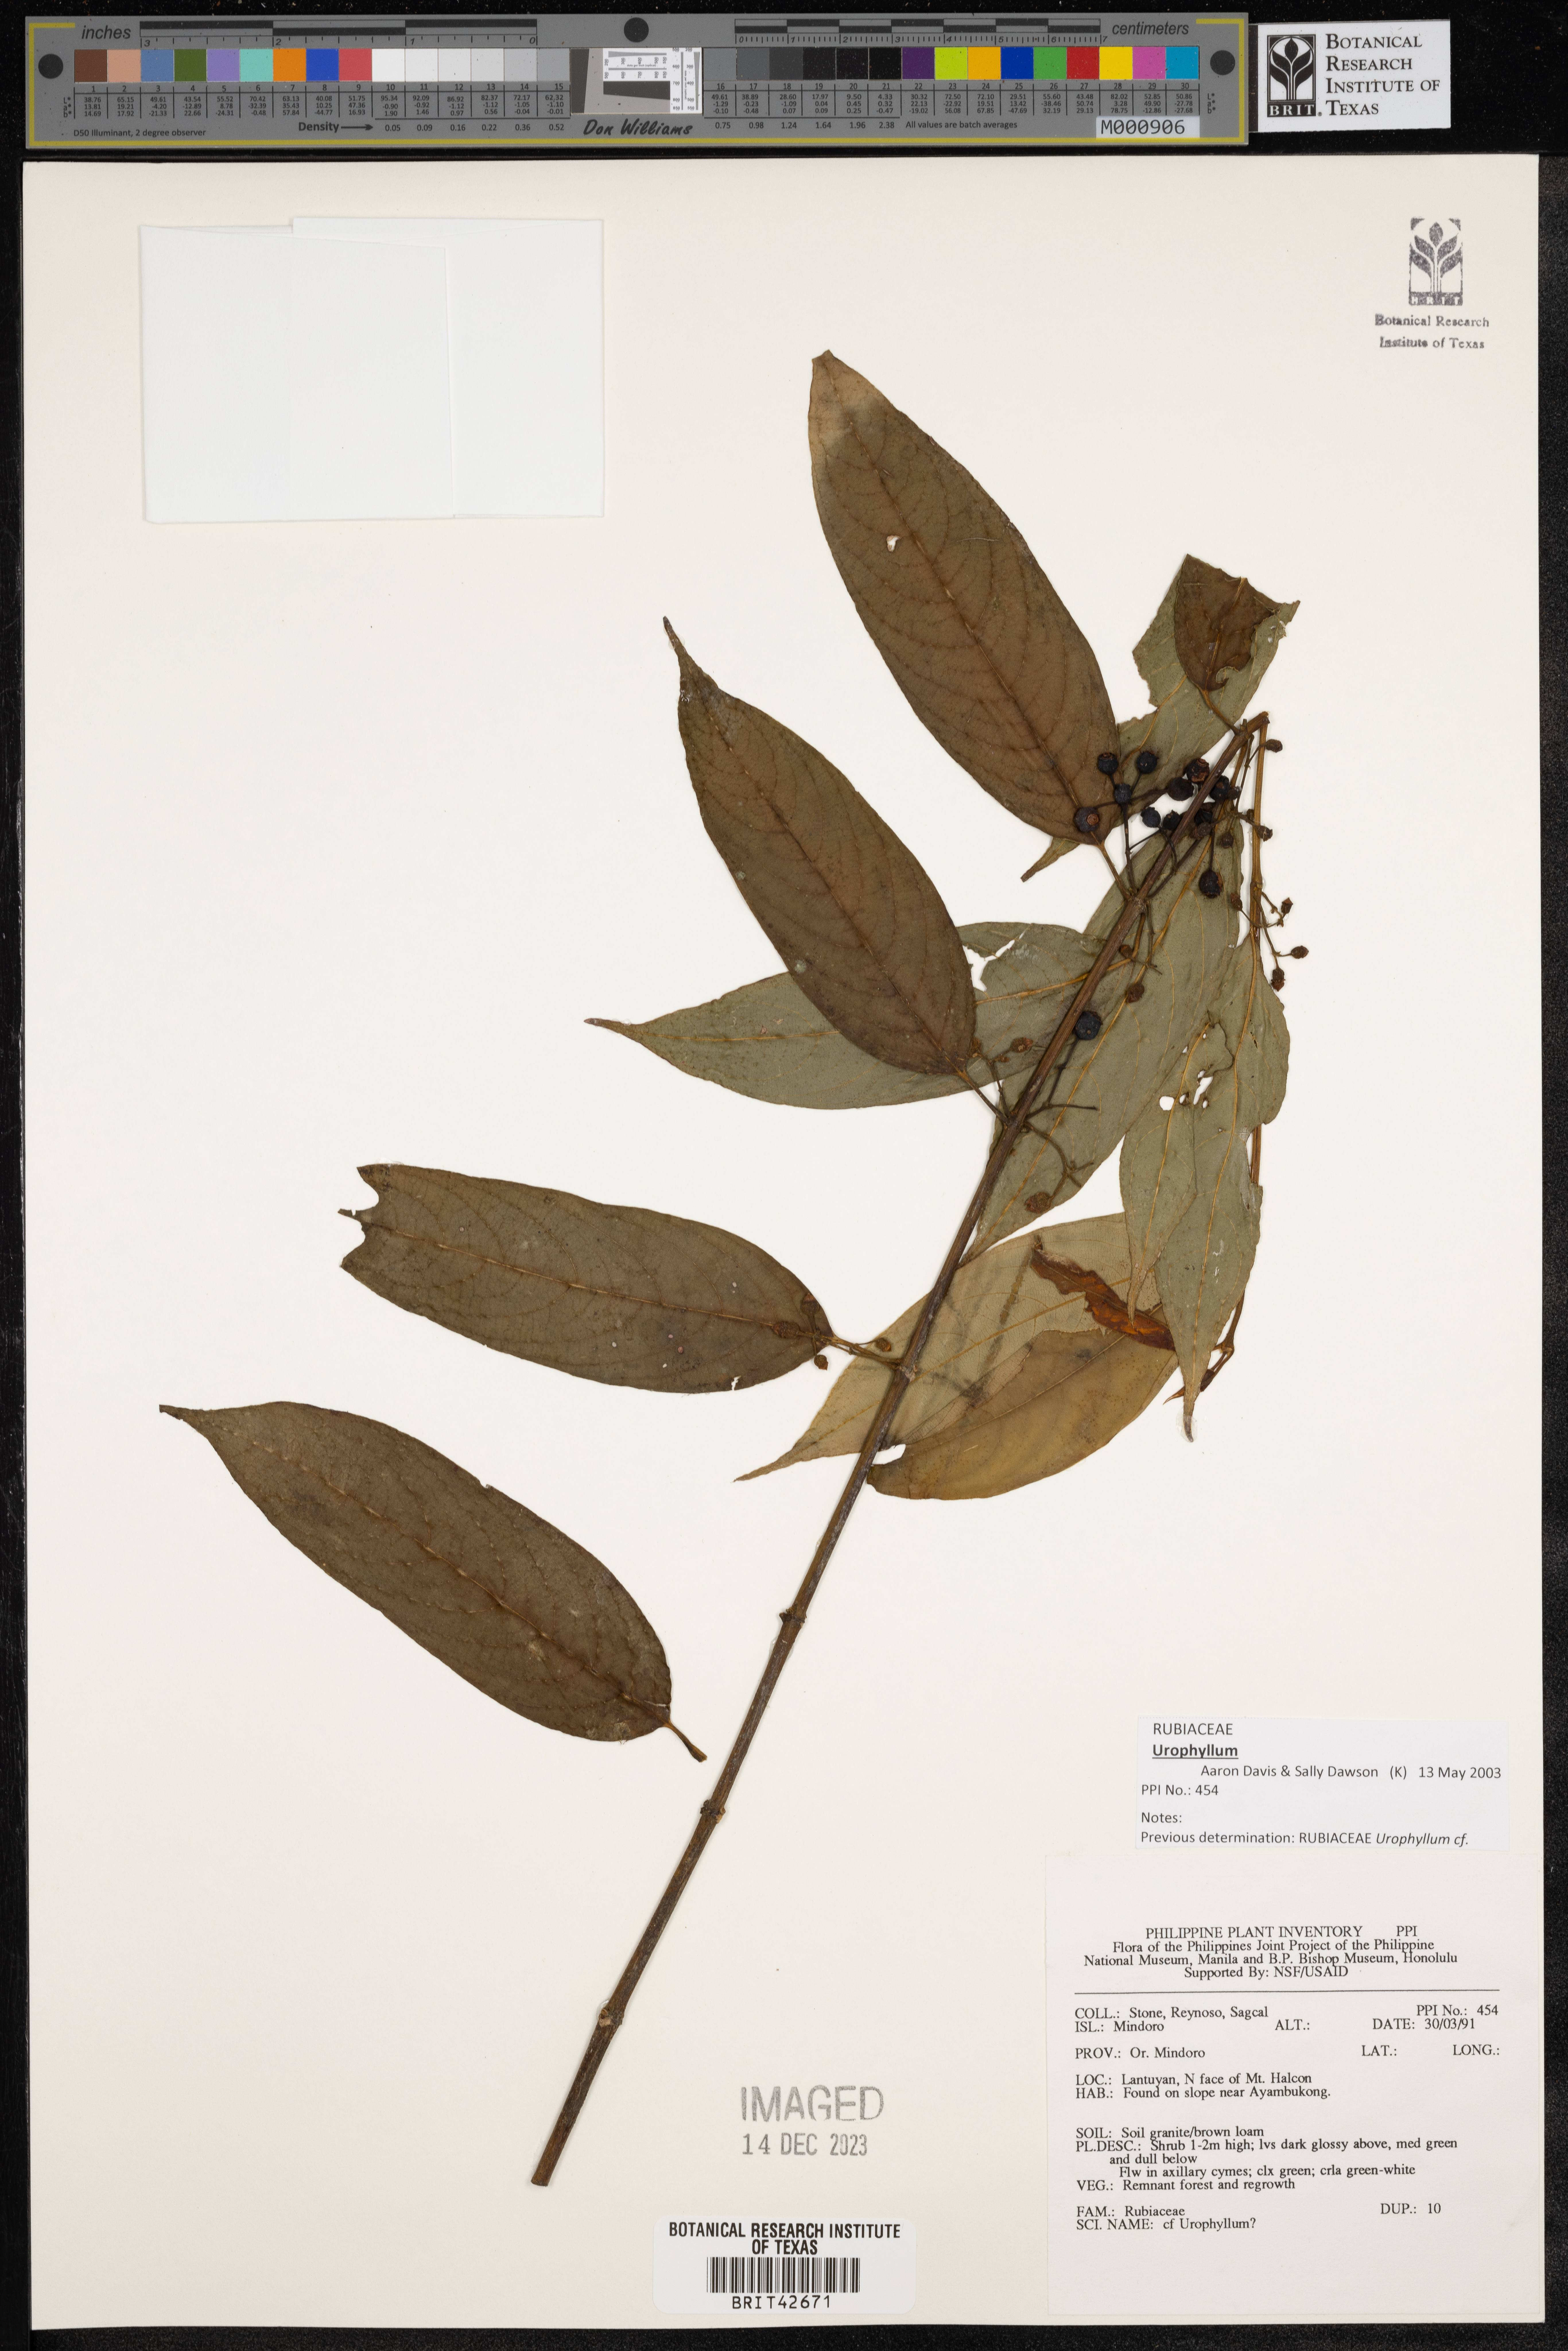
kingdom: Plantae
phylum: Tracheophyta
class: Magnoliopsida
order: Gentianales
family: Rubiaceae
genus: Urophyllum
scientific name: Urophyllum
